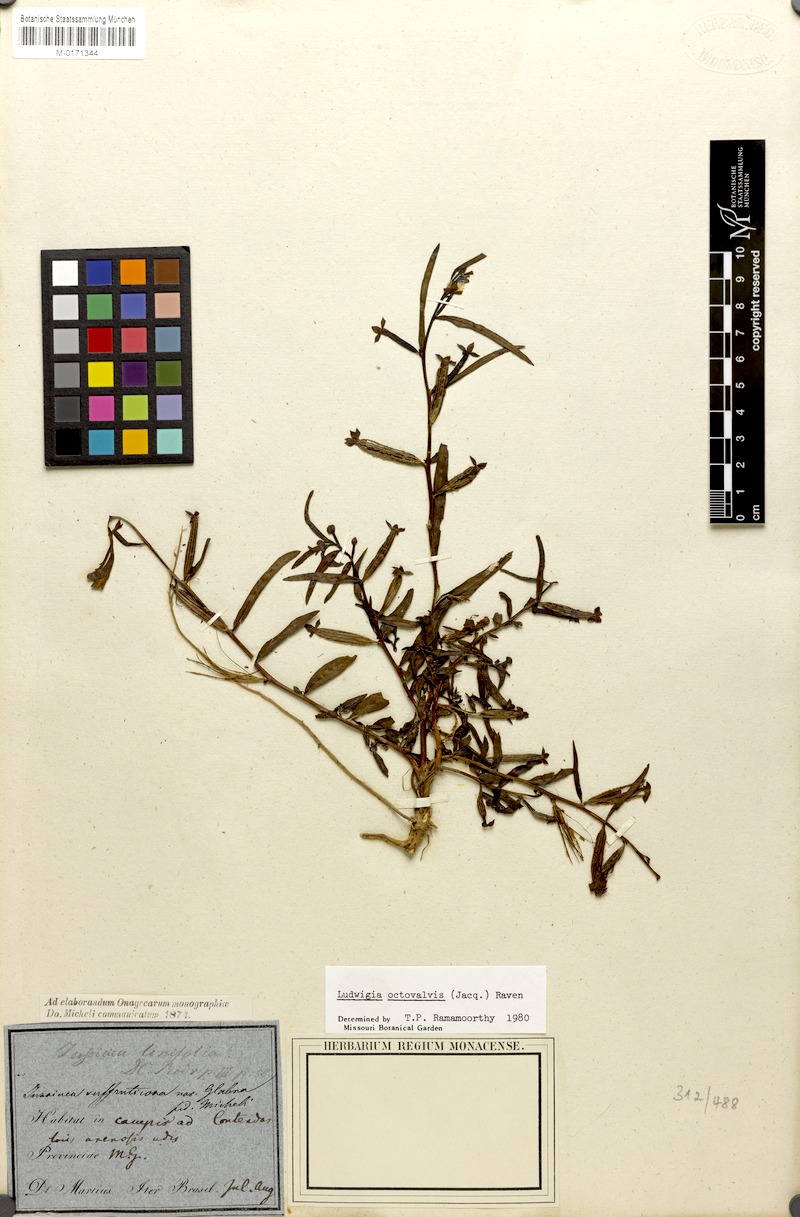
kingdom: Plantae
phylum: Tracheophyta
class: Magnoliopsida
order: Myrtales
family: Onagraceae
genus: Ludwigia
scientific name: Ludwigia octovalvis
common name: Water-primrose
